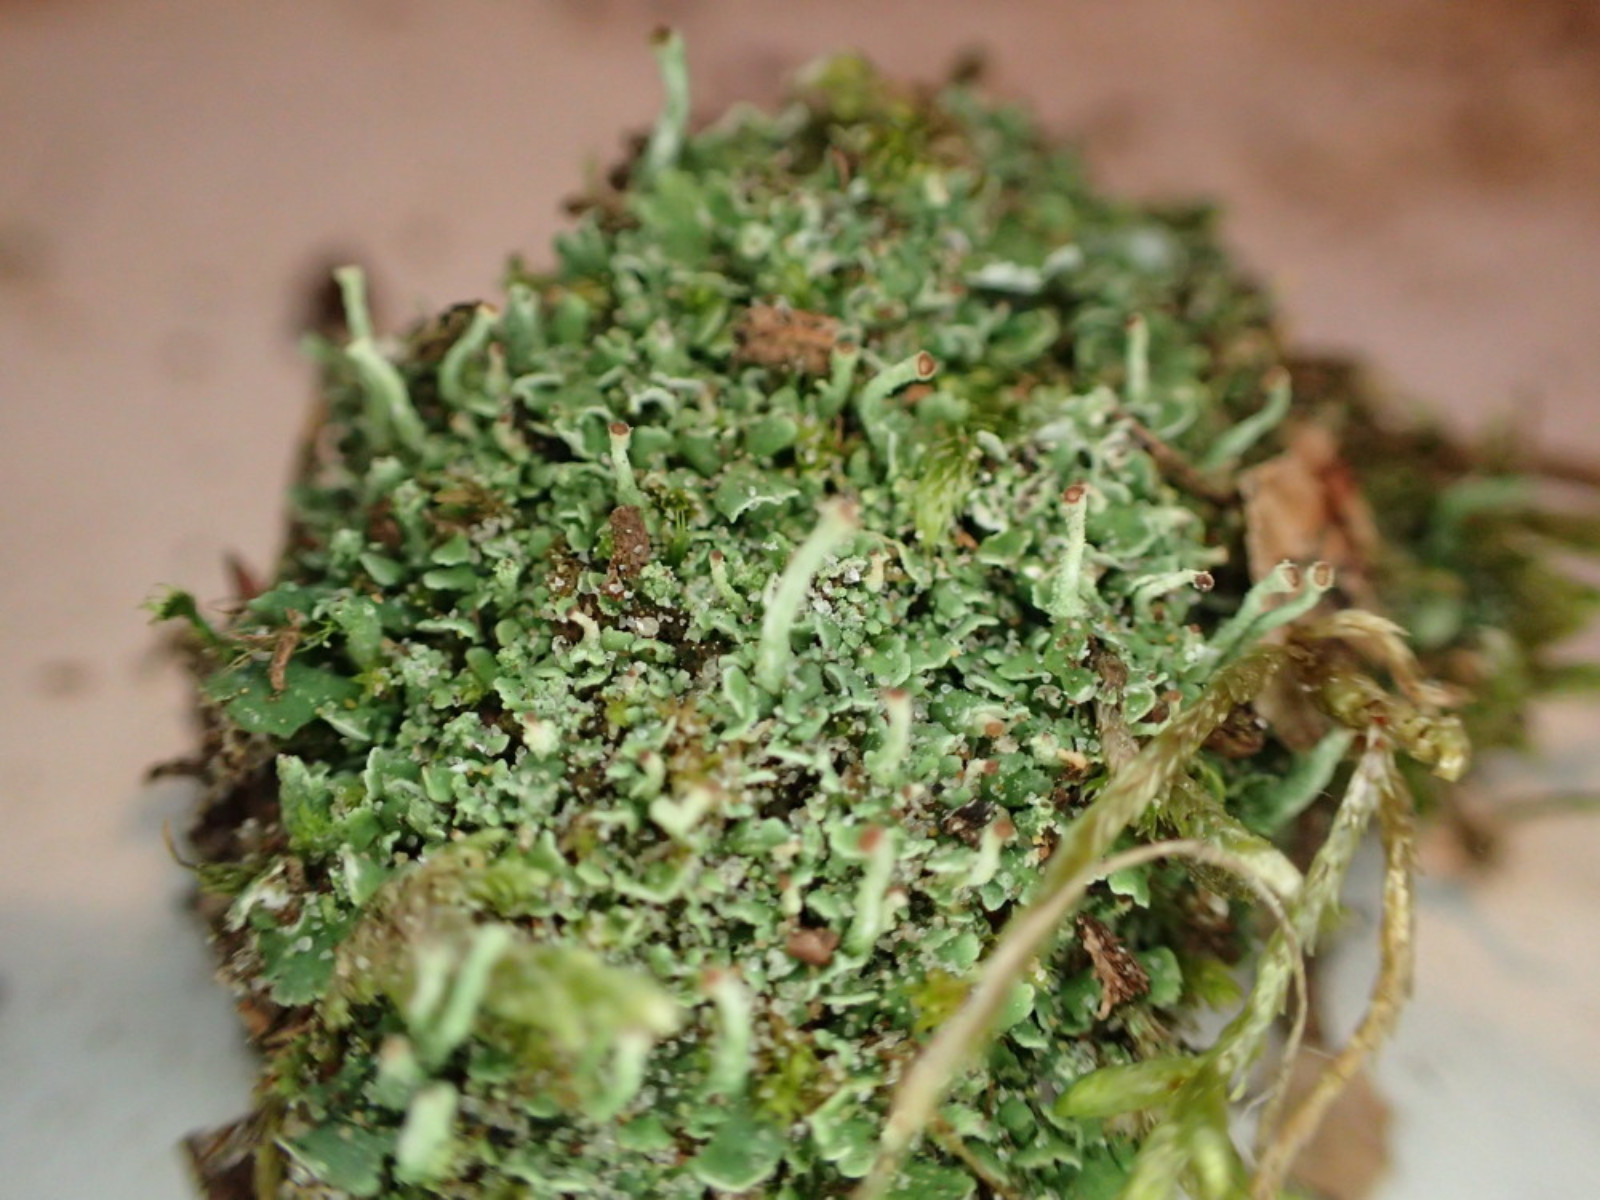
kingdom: Fungi
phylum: Ascomycota
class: Lecanoromycetes
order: Lecanorales
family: Cladoniaceae
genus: Cladonia
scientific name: Cladonia
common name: brungrøn bægerlav
